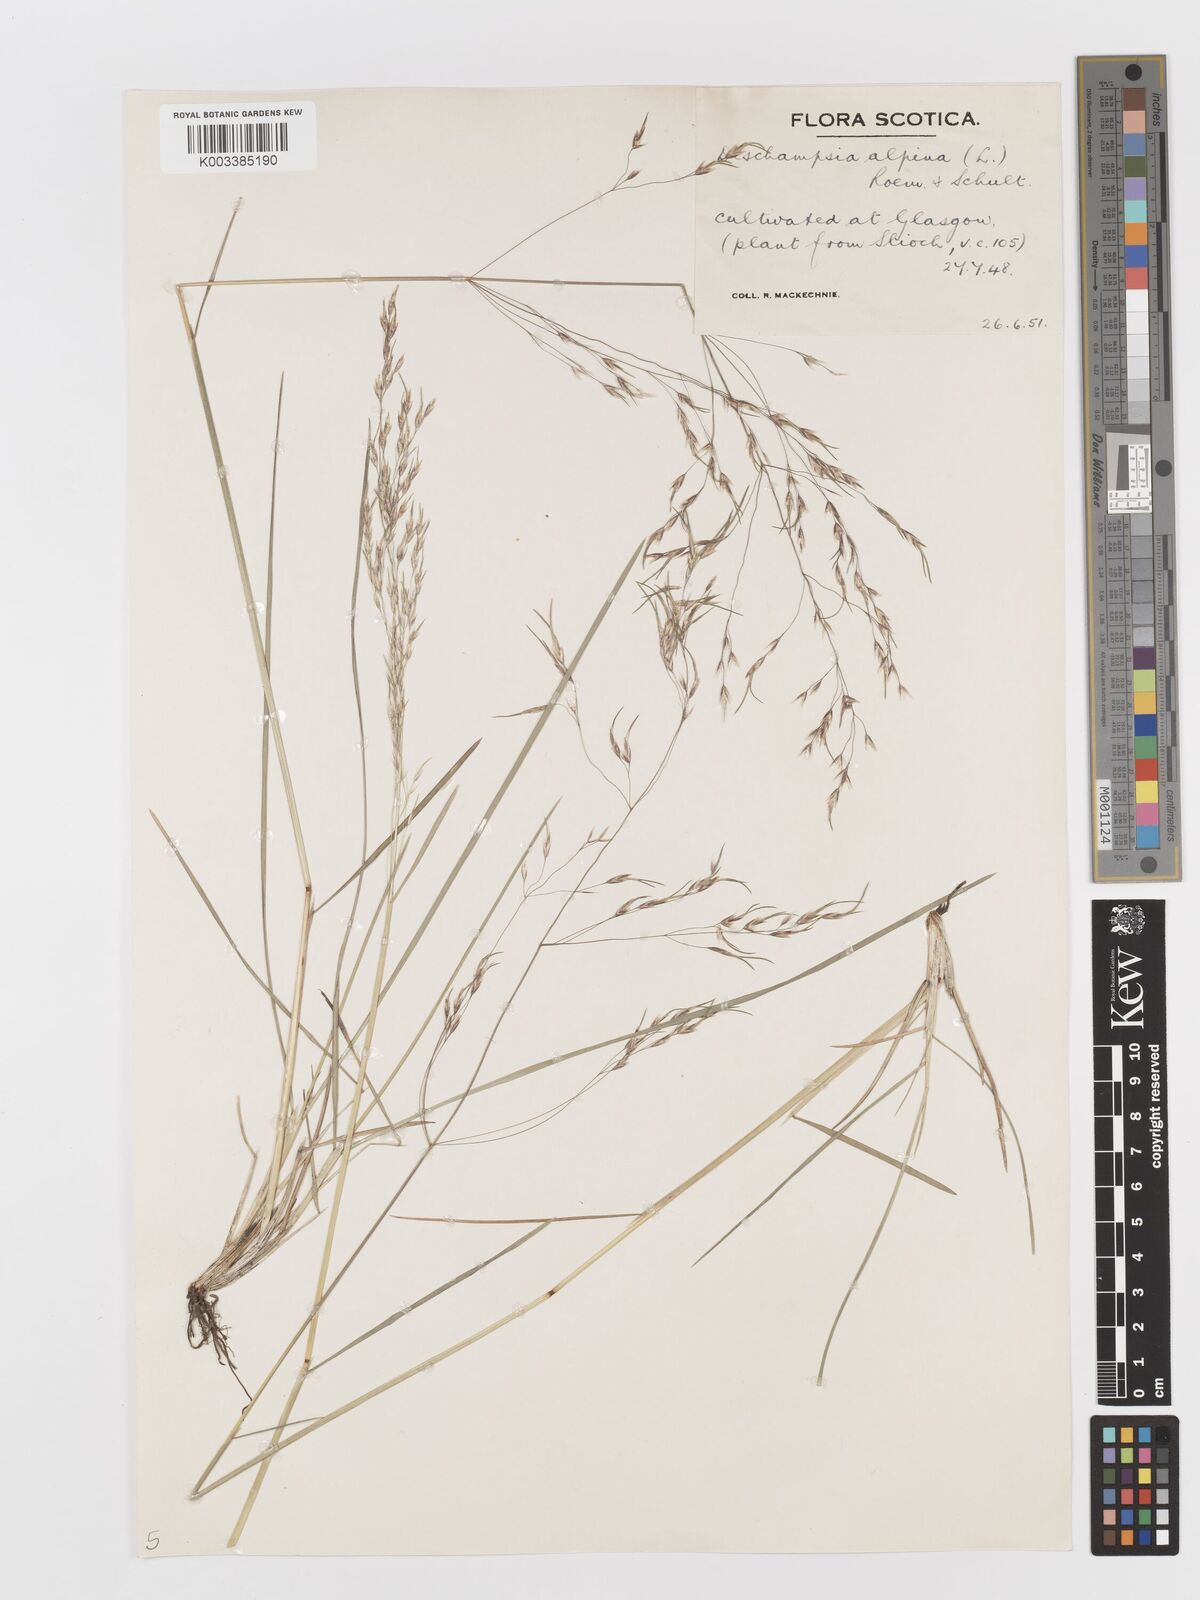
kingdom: Plantae
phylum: Tracheophyta
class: Liliopsida
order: Poales
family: Poaceae
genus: Deschampsia
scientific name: Deschampsia cespitosa
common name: Tufted hair-grass
